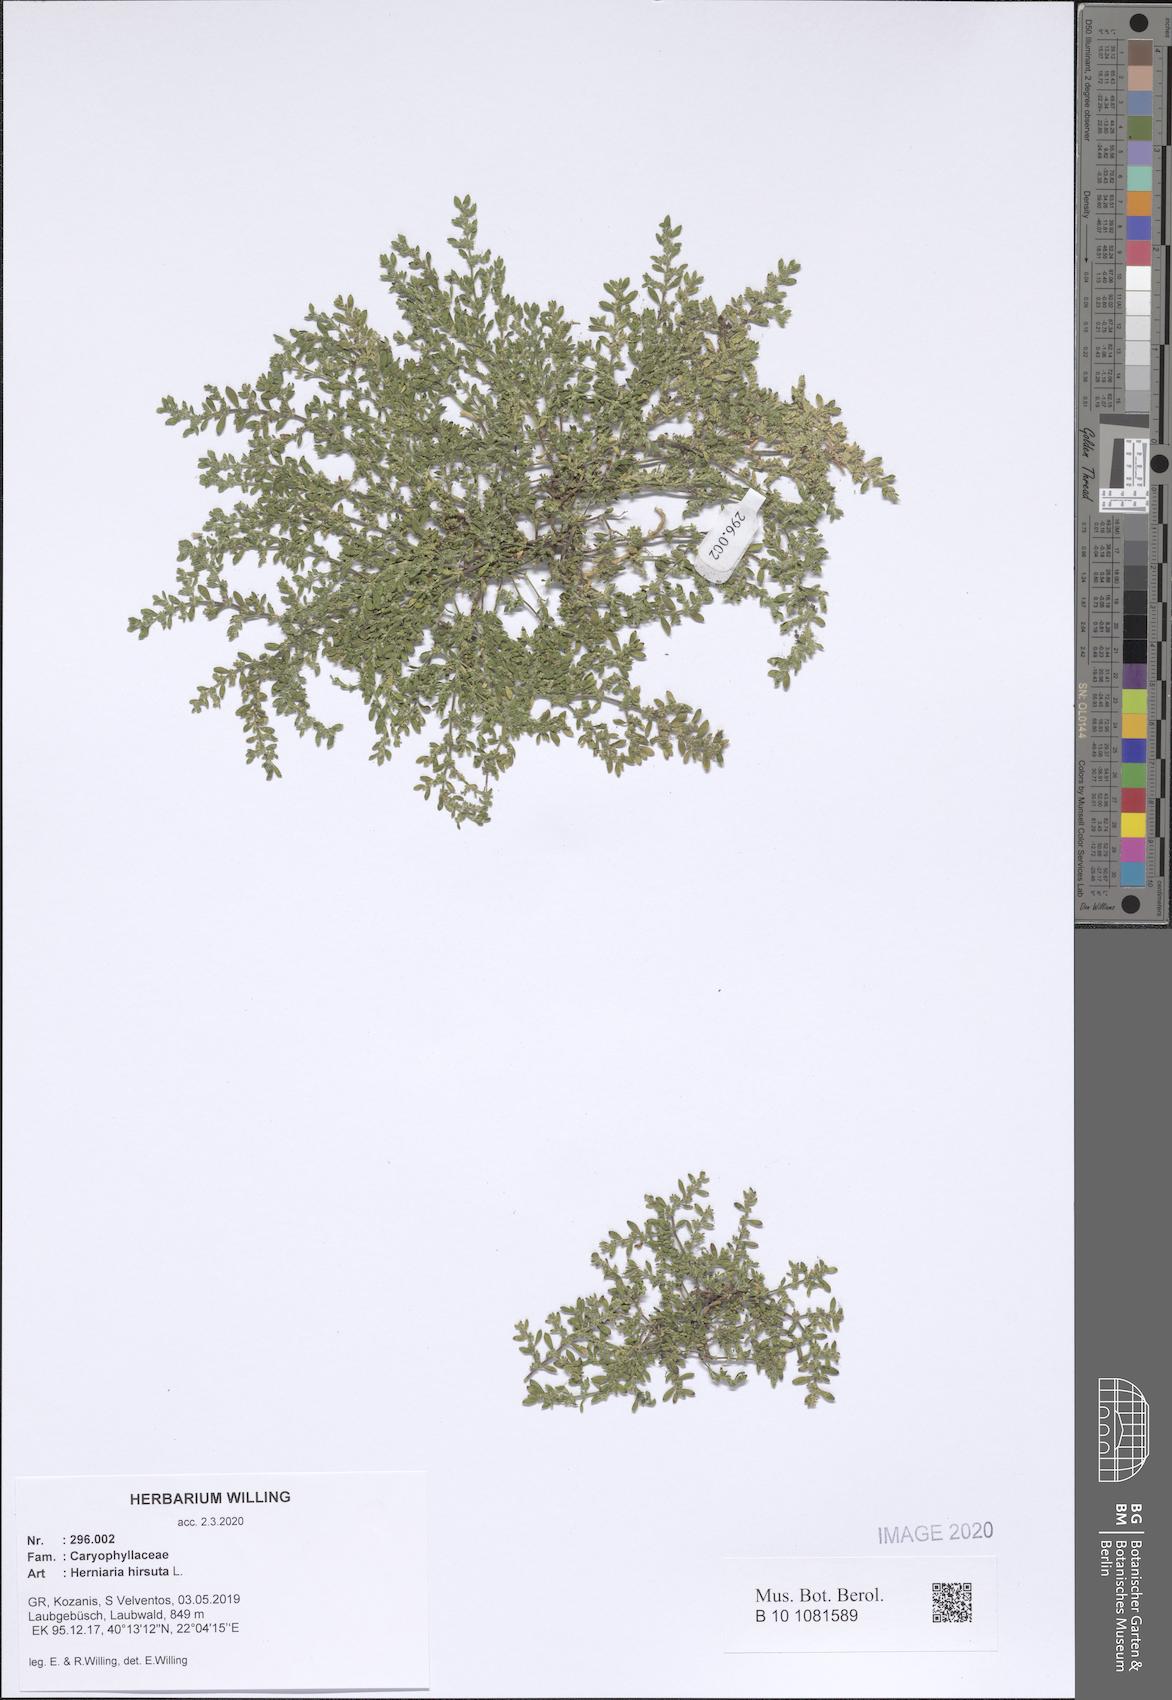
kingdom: Plantae
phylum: Tracheophyta
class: Magnoliopsida
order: Caryophyllales
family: Caryophyllaceae
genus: Herniaria
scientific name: Herniaria hirsuta
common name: Hairy rupturewort
